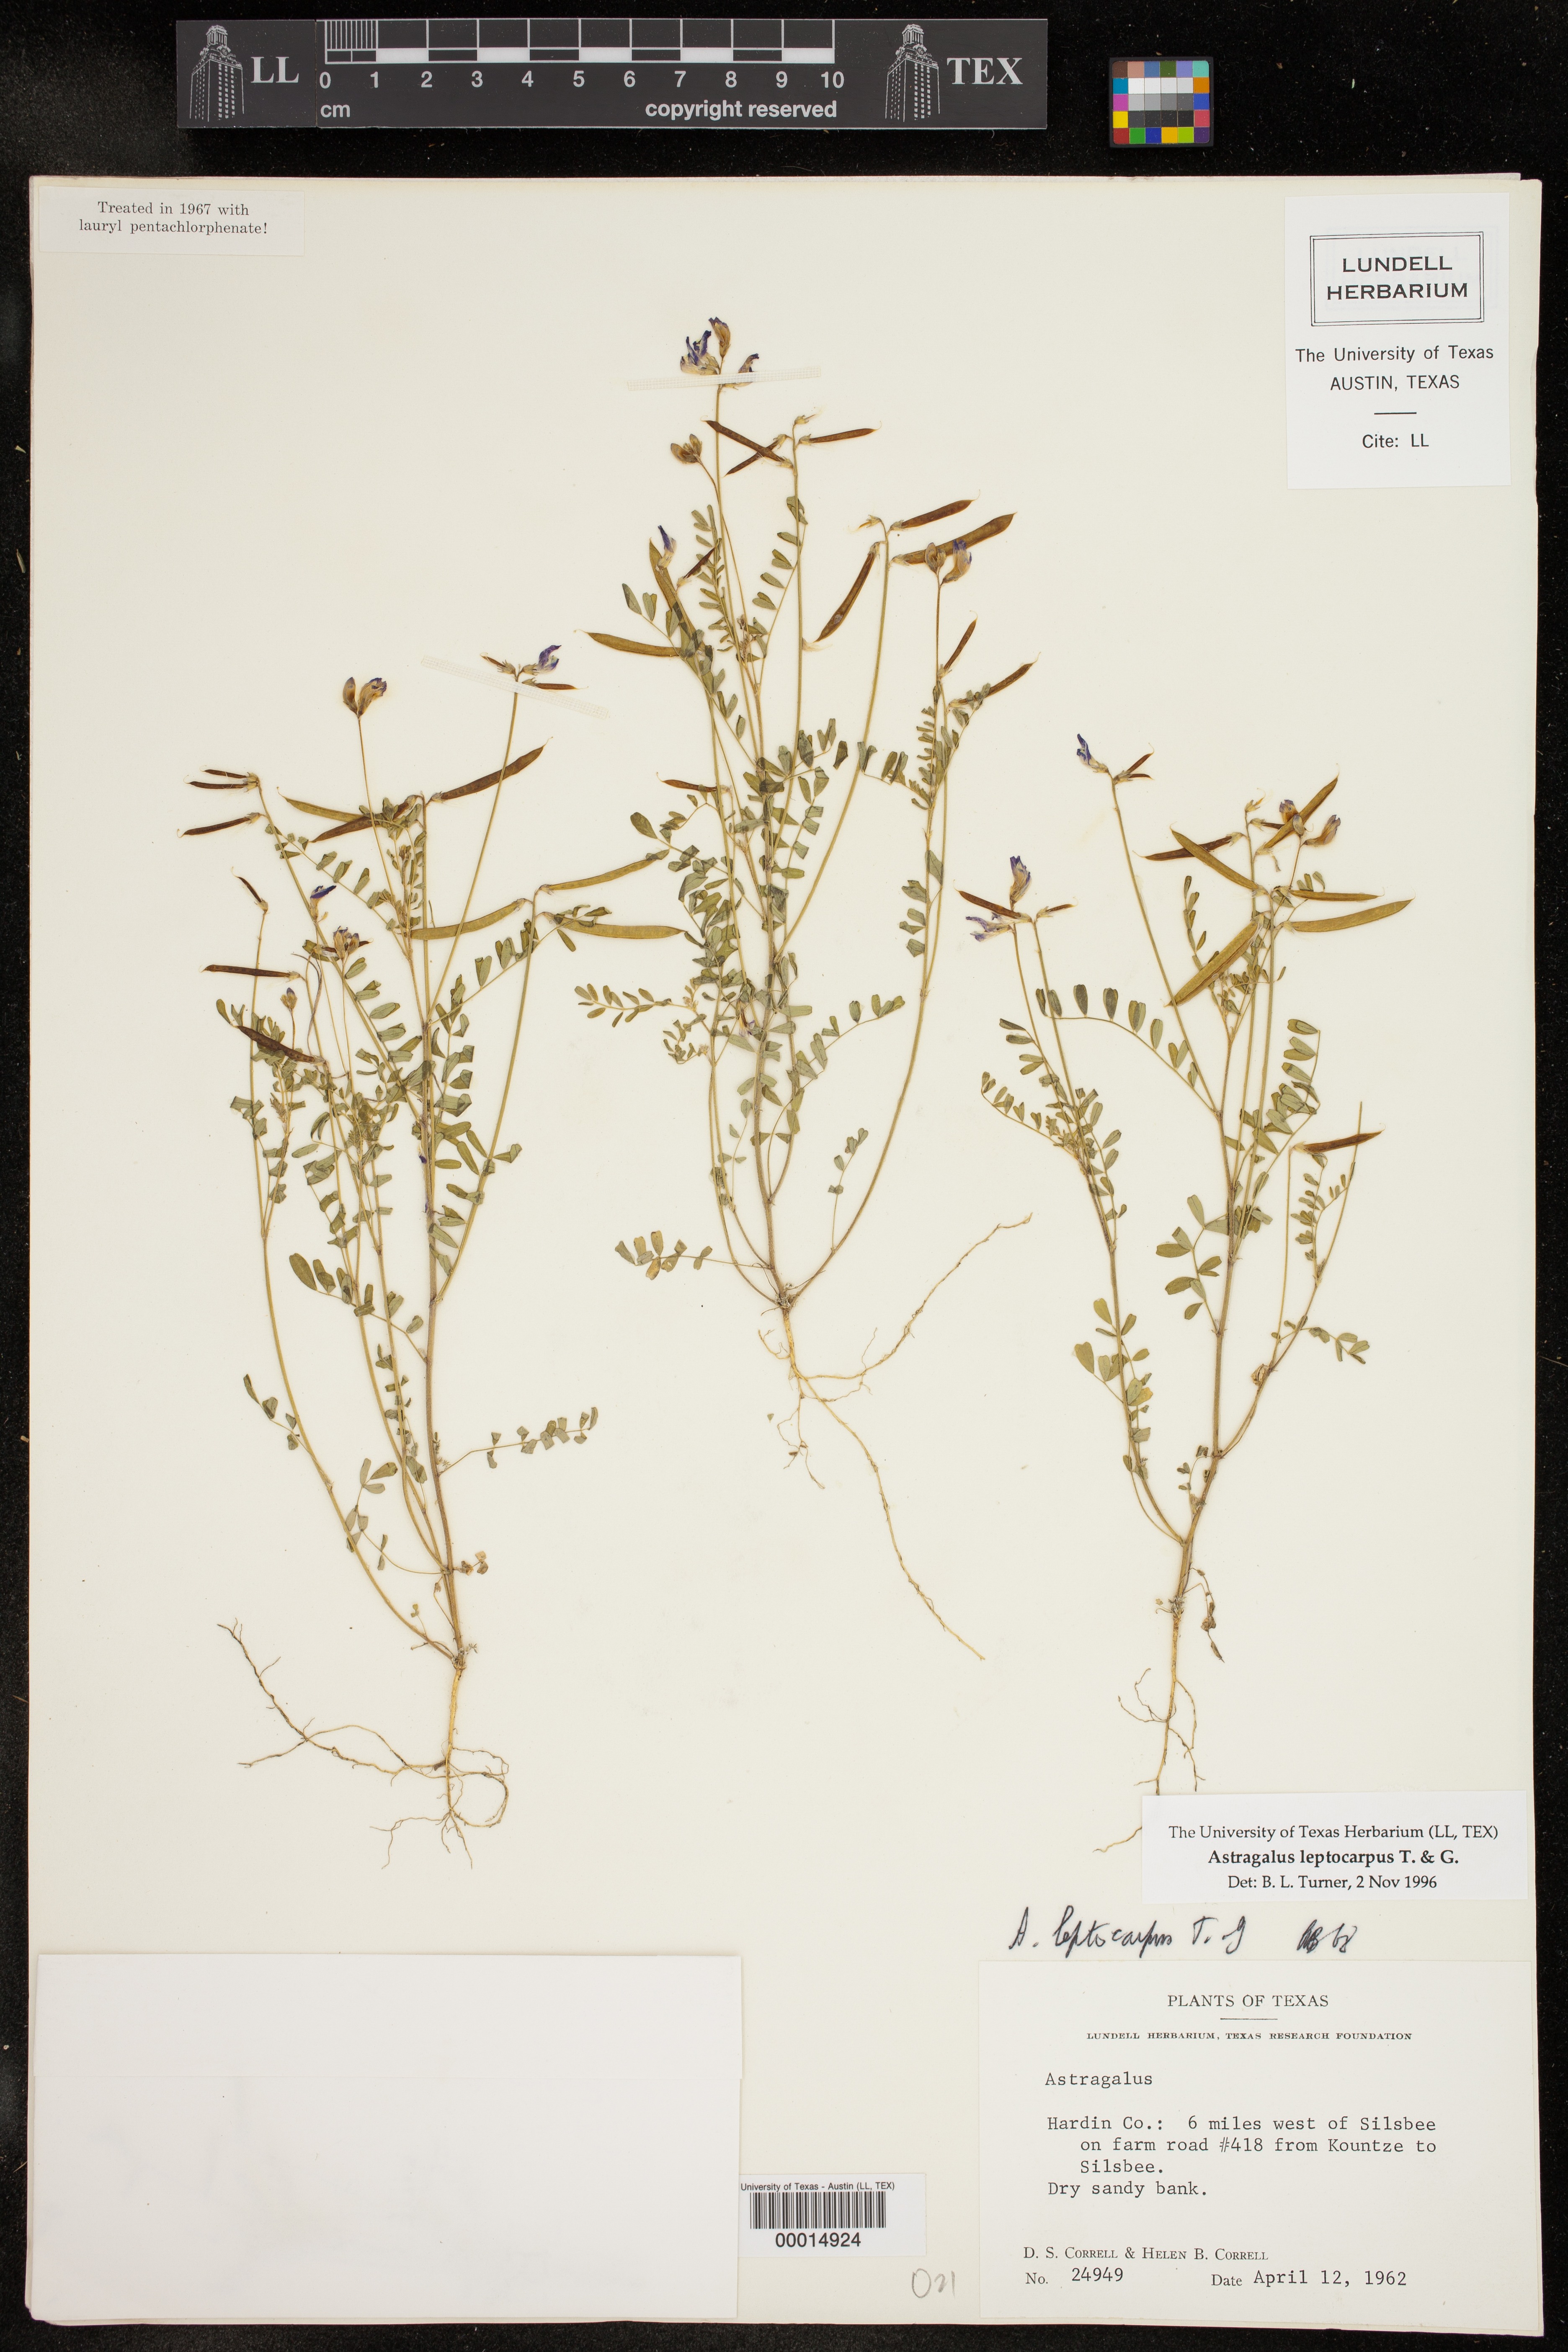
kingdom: Plantae
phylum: Tracheophyta
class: Magnoliopsida
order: Fabales
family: Fabaceae
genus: Astragalus
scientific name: Astragalus leptocarpus
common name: Bodkin milk-vetch
